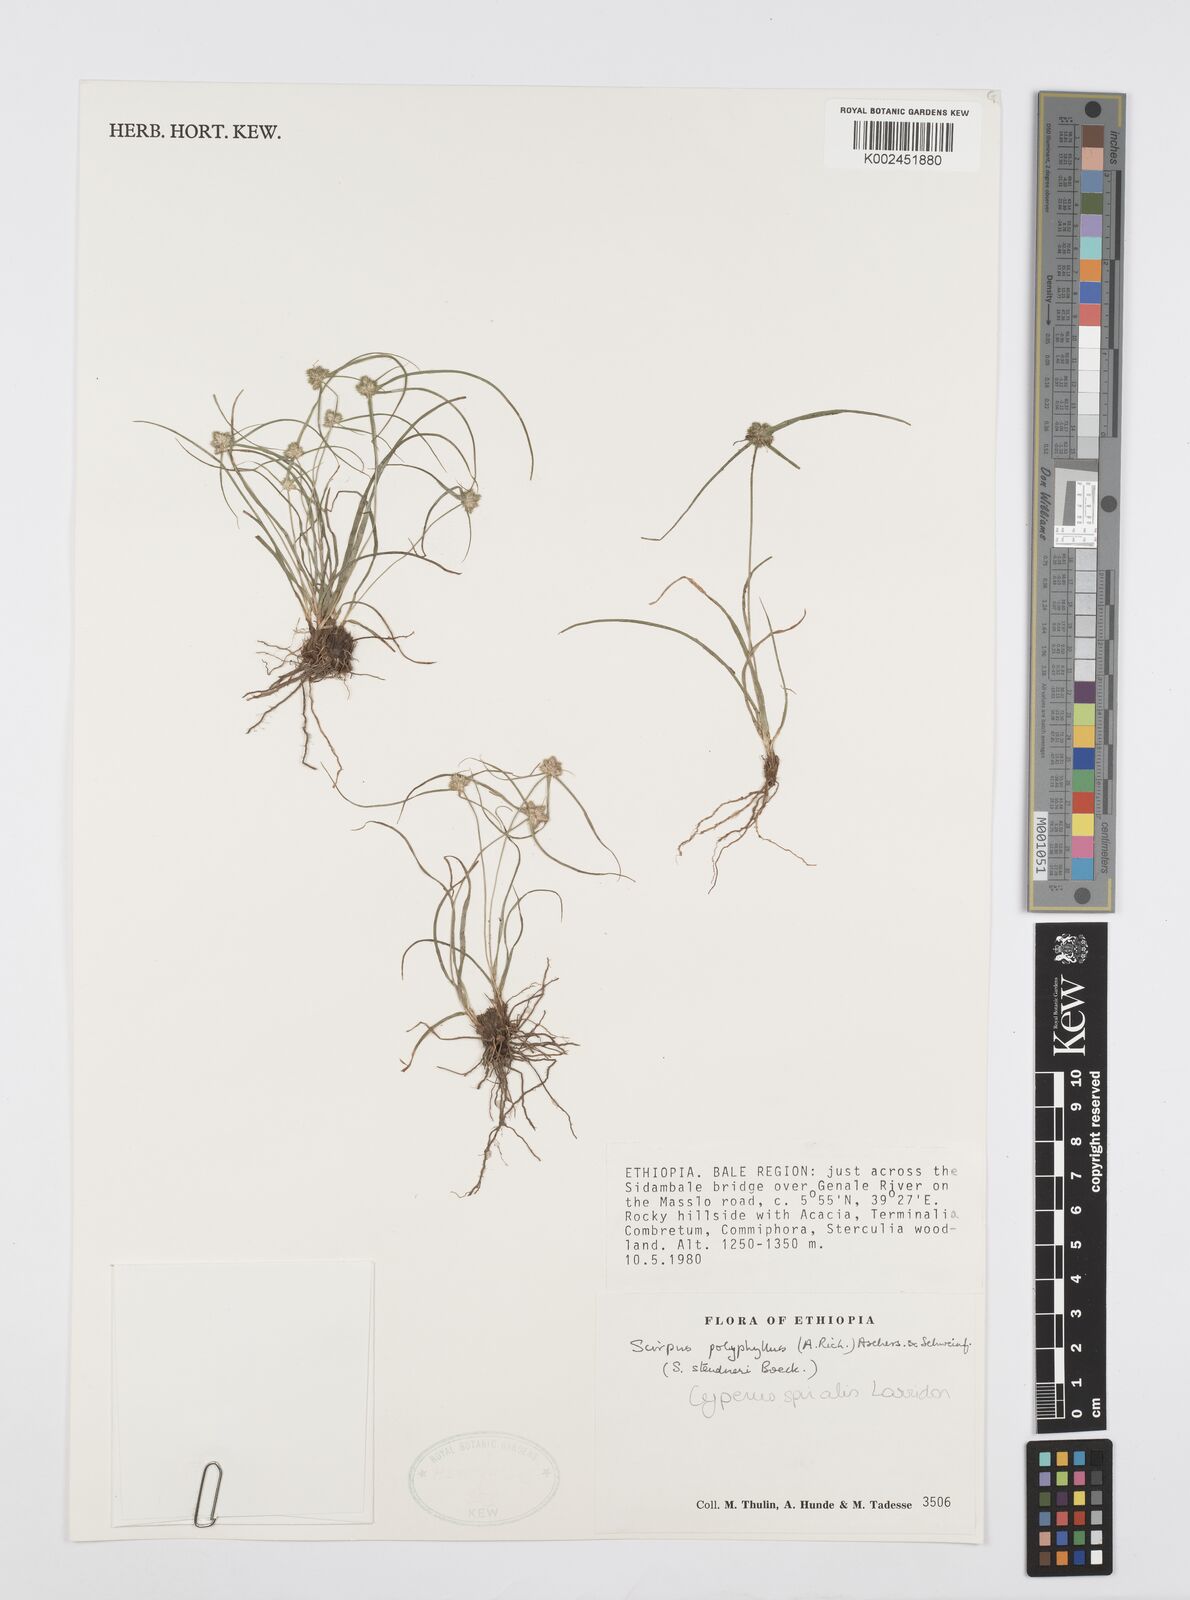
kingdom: Plantae
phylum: Tracheophyta
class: Liliopsida
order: Poales
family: Cyperaceae
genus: Cyperus
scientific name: Cyperus microcephalus
